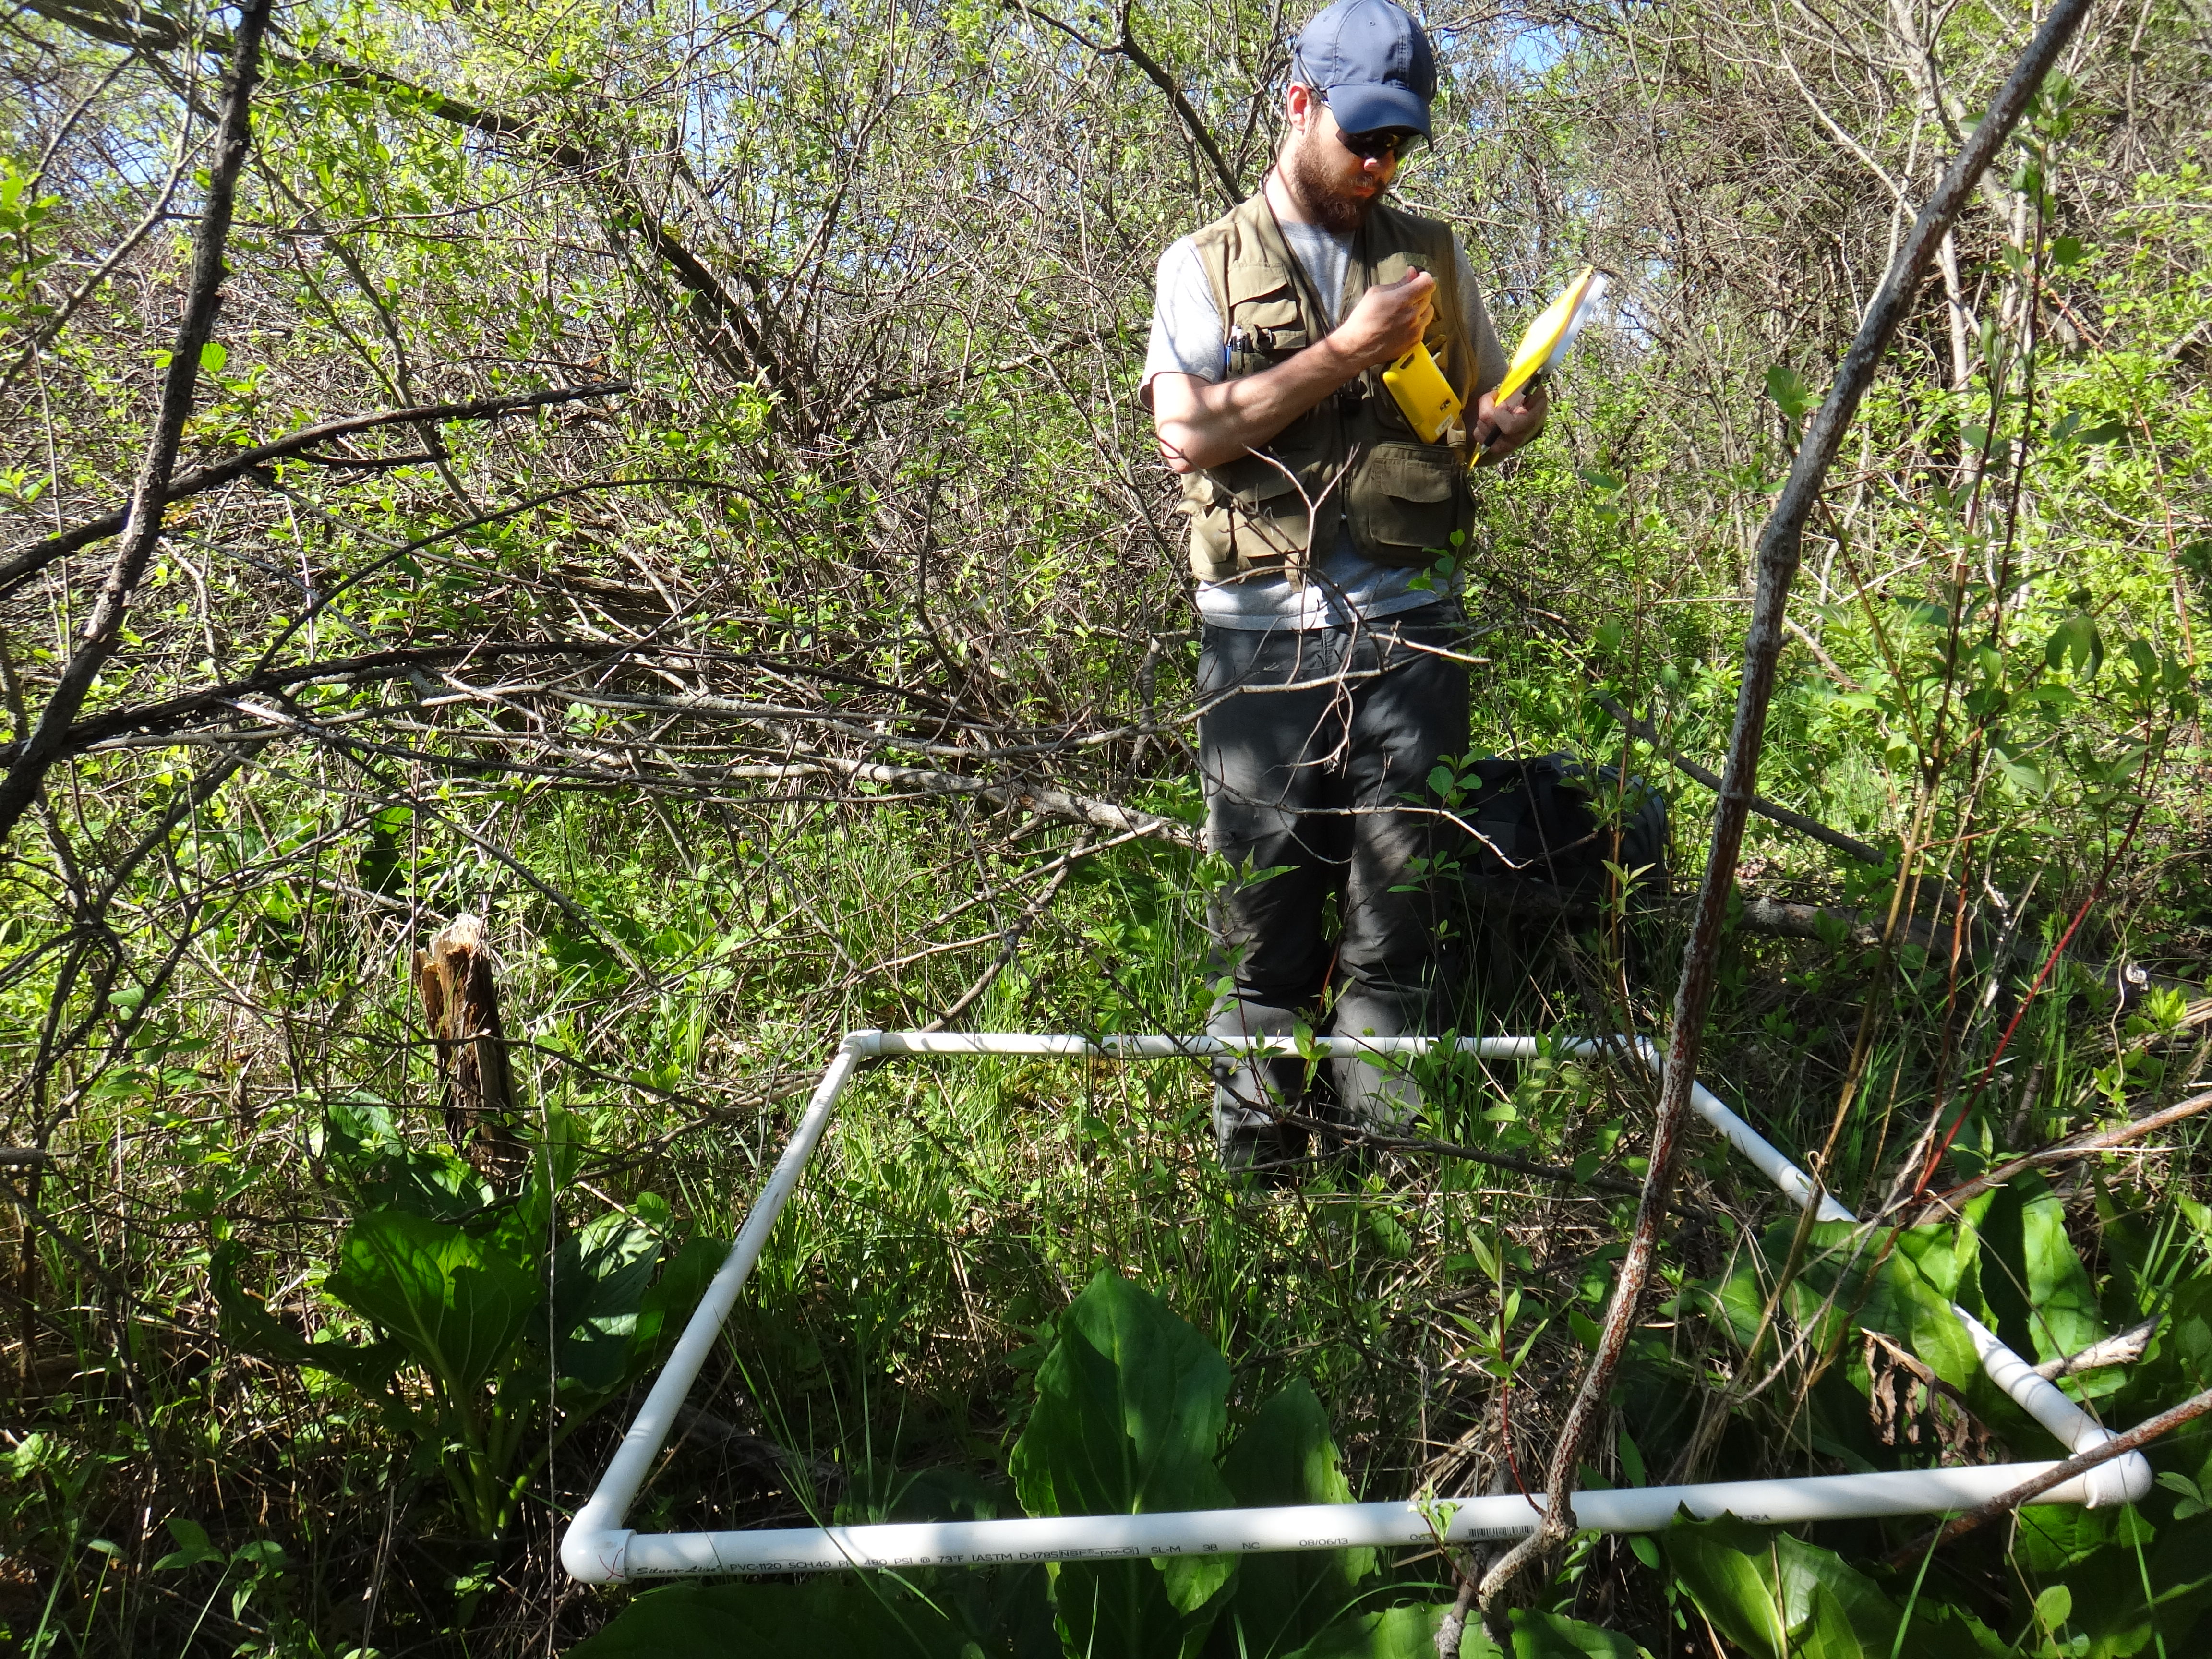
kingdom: Plantae
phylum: Tracheophyta
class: Magnoliopsida
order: Rosales
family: Rosaceae
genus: Rubus
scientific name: Rubus pubescens
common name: Dwarf raspberry
